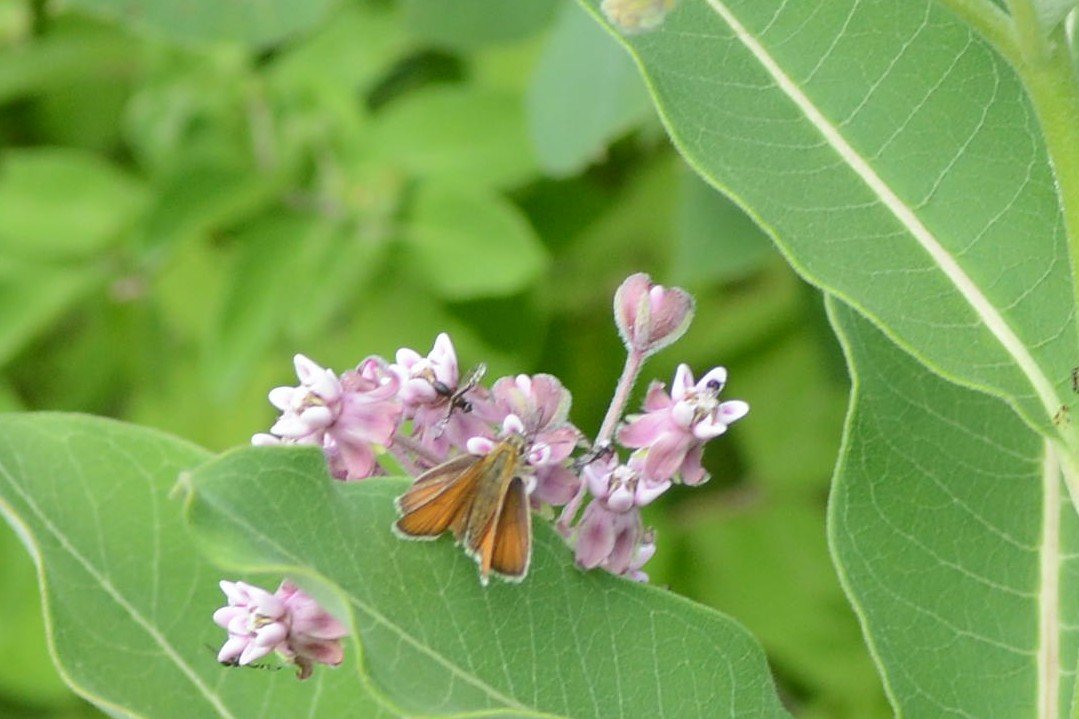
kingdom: Animalia
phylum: Arthropoda
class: Insecta
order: Lepidoptera
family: Hesperiidae
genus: Thymelicus
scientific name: Thymelicus lineola
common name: European Skipper
